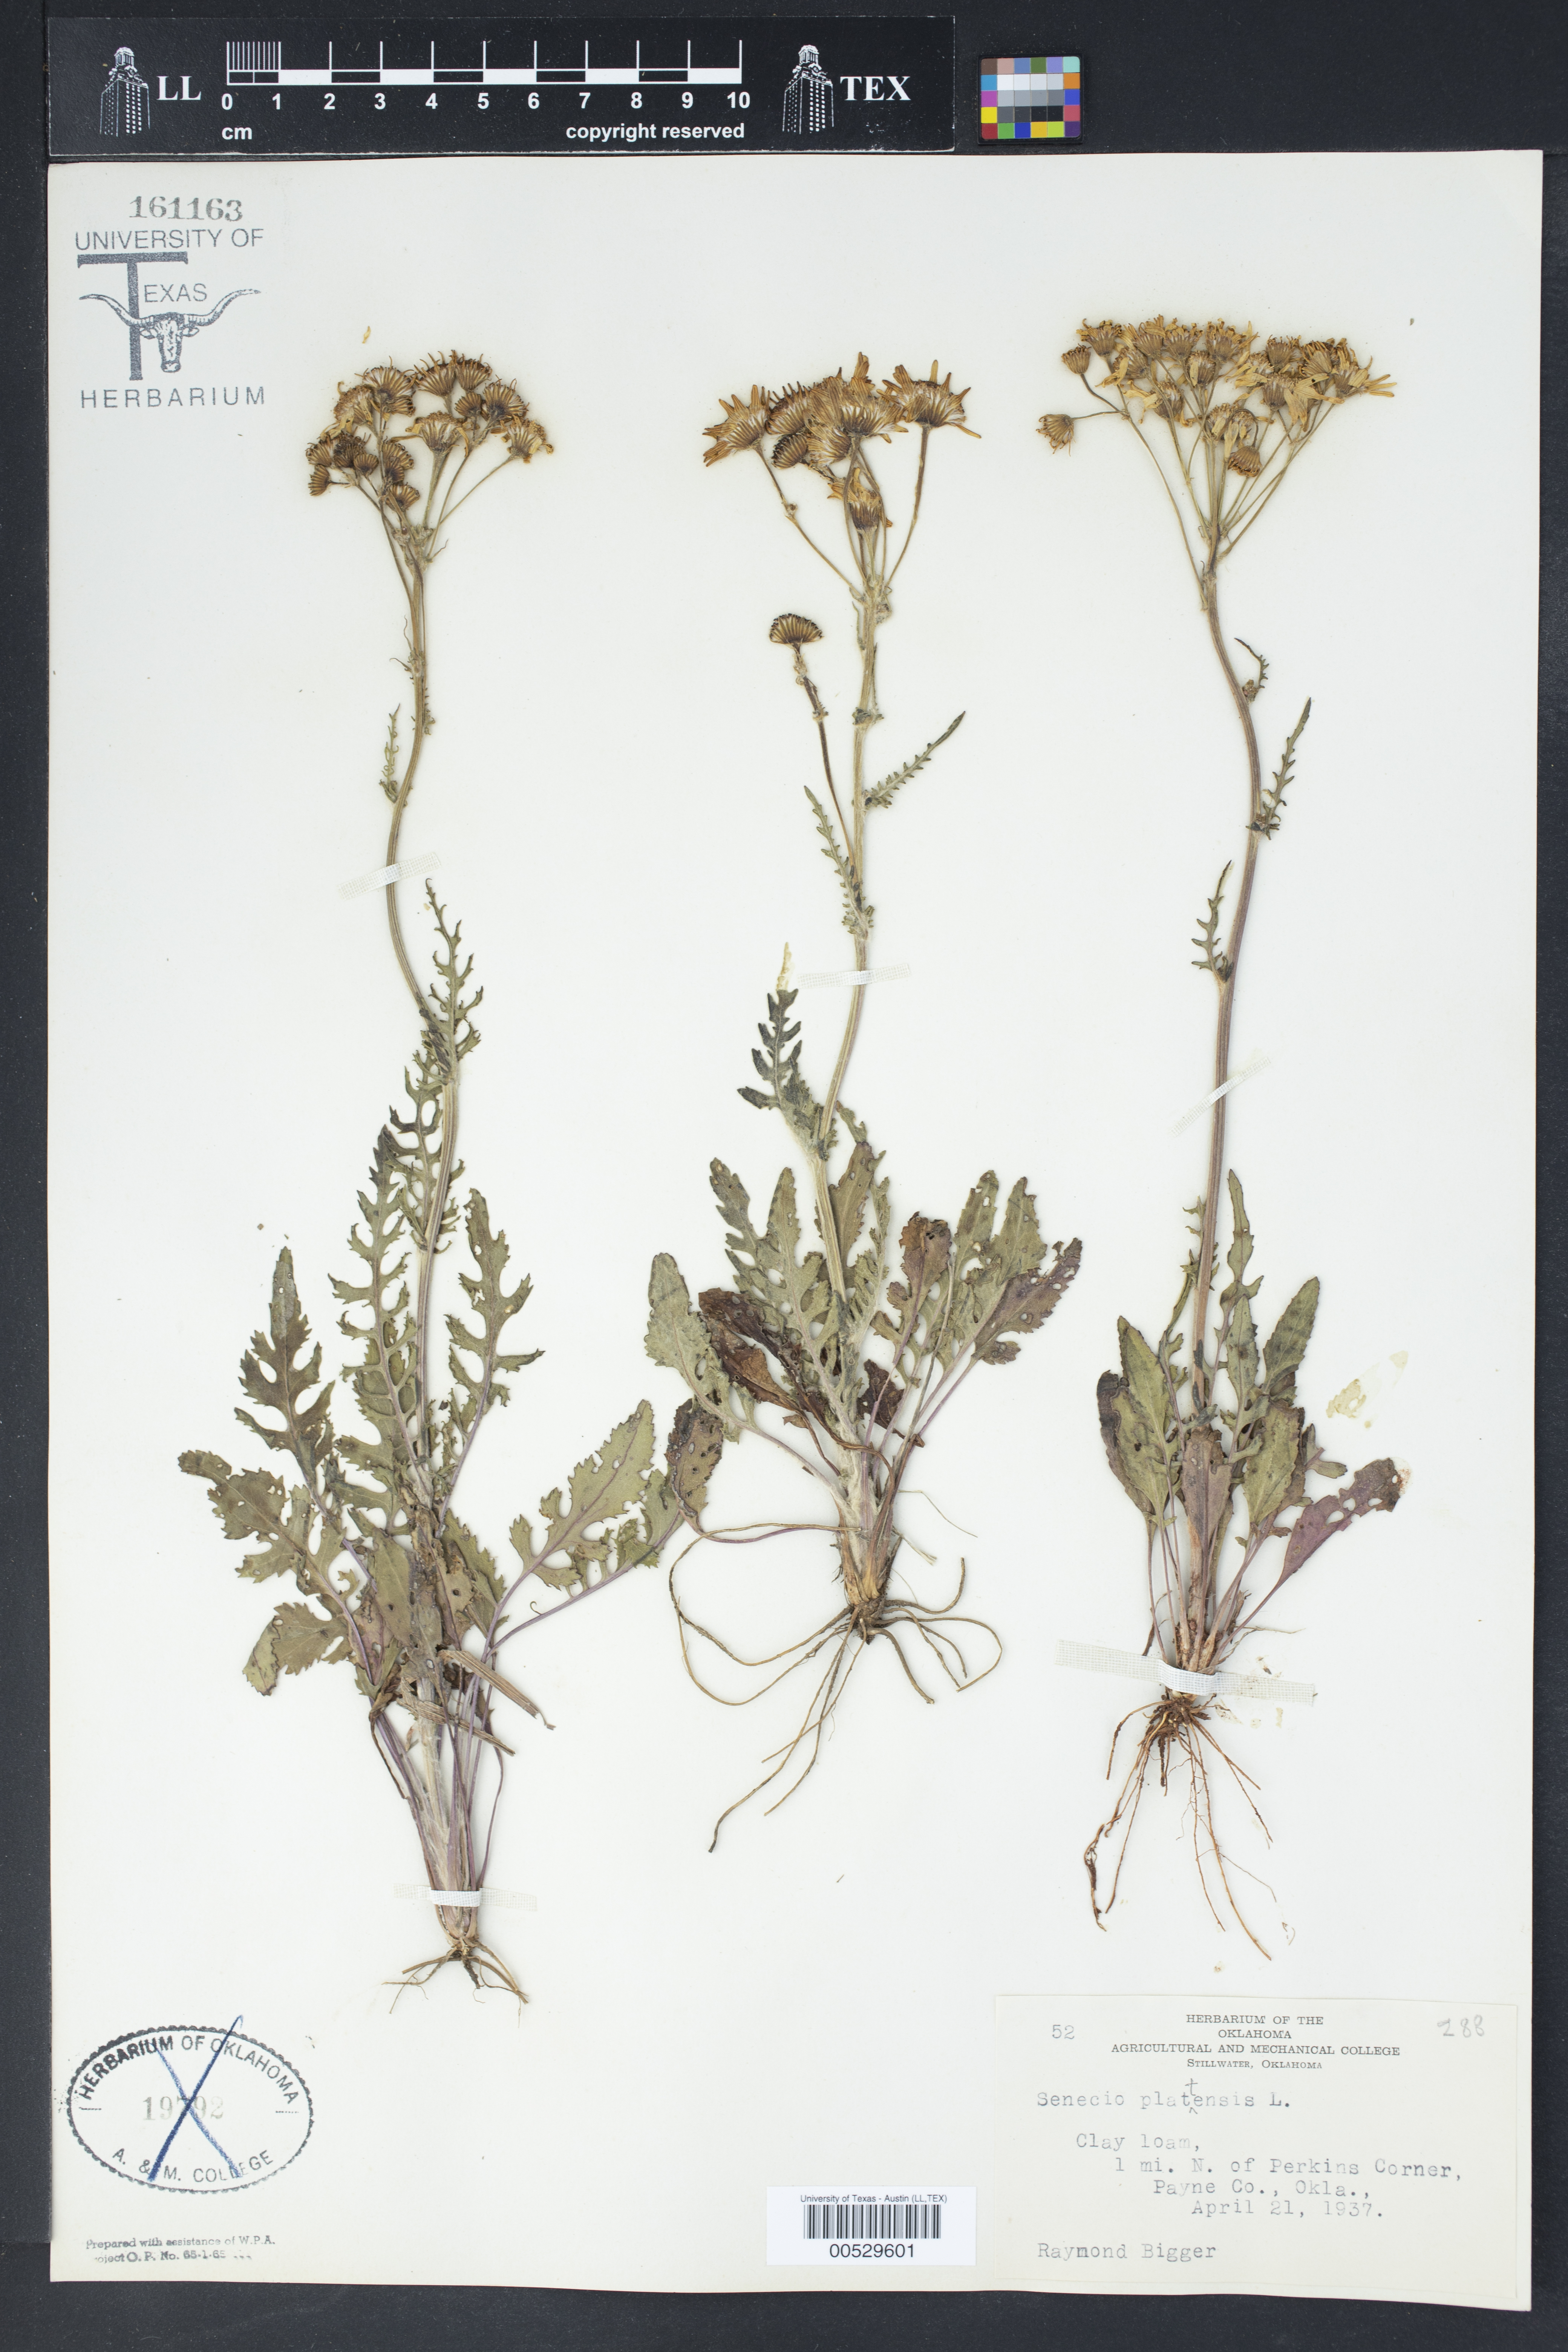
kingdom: Plantae
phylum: Tracheophyta
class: Magnoliopsida
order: Asterales
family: Asteraceae
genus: Packera
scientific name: Packera plattensis
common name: Prairie groundsel
